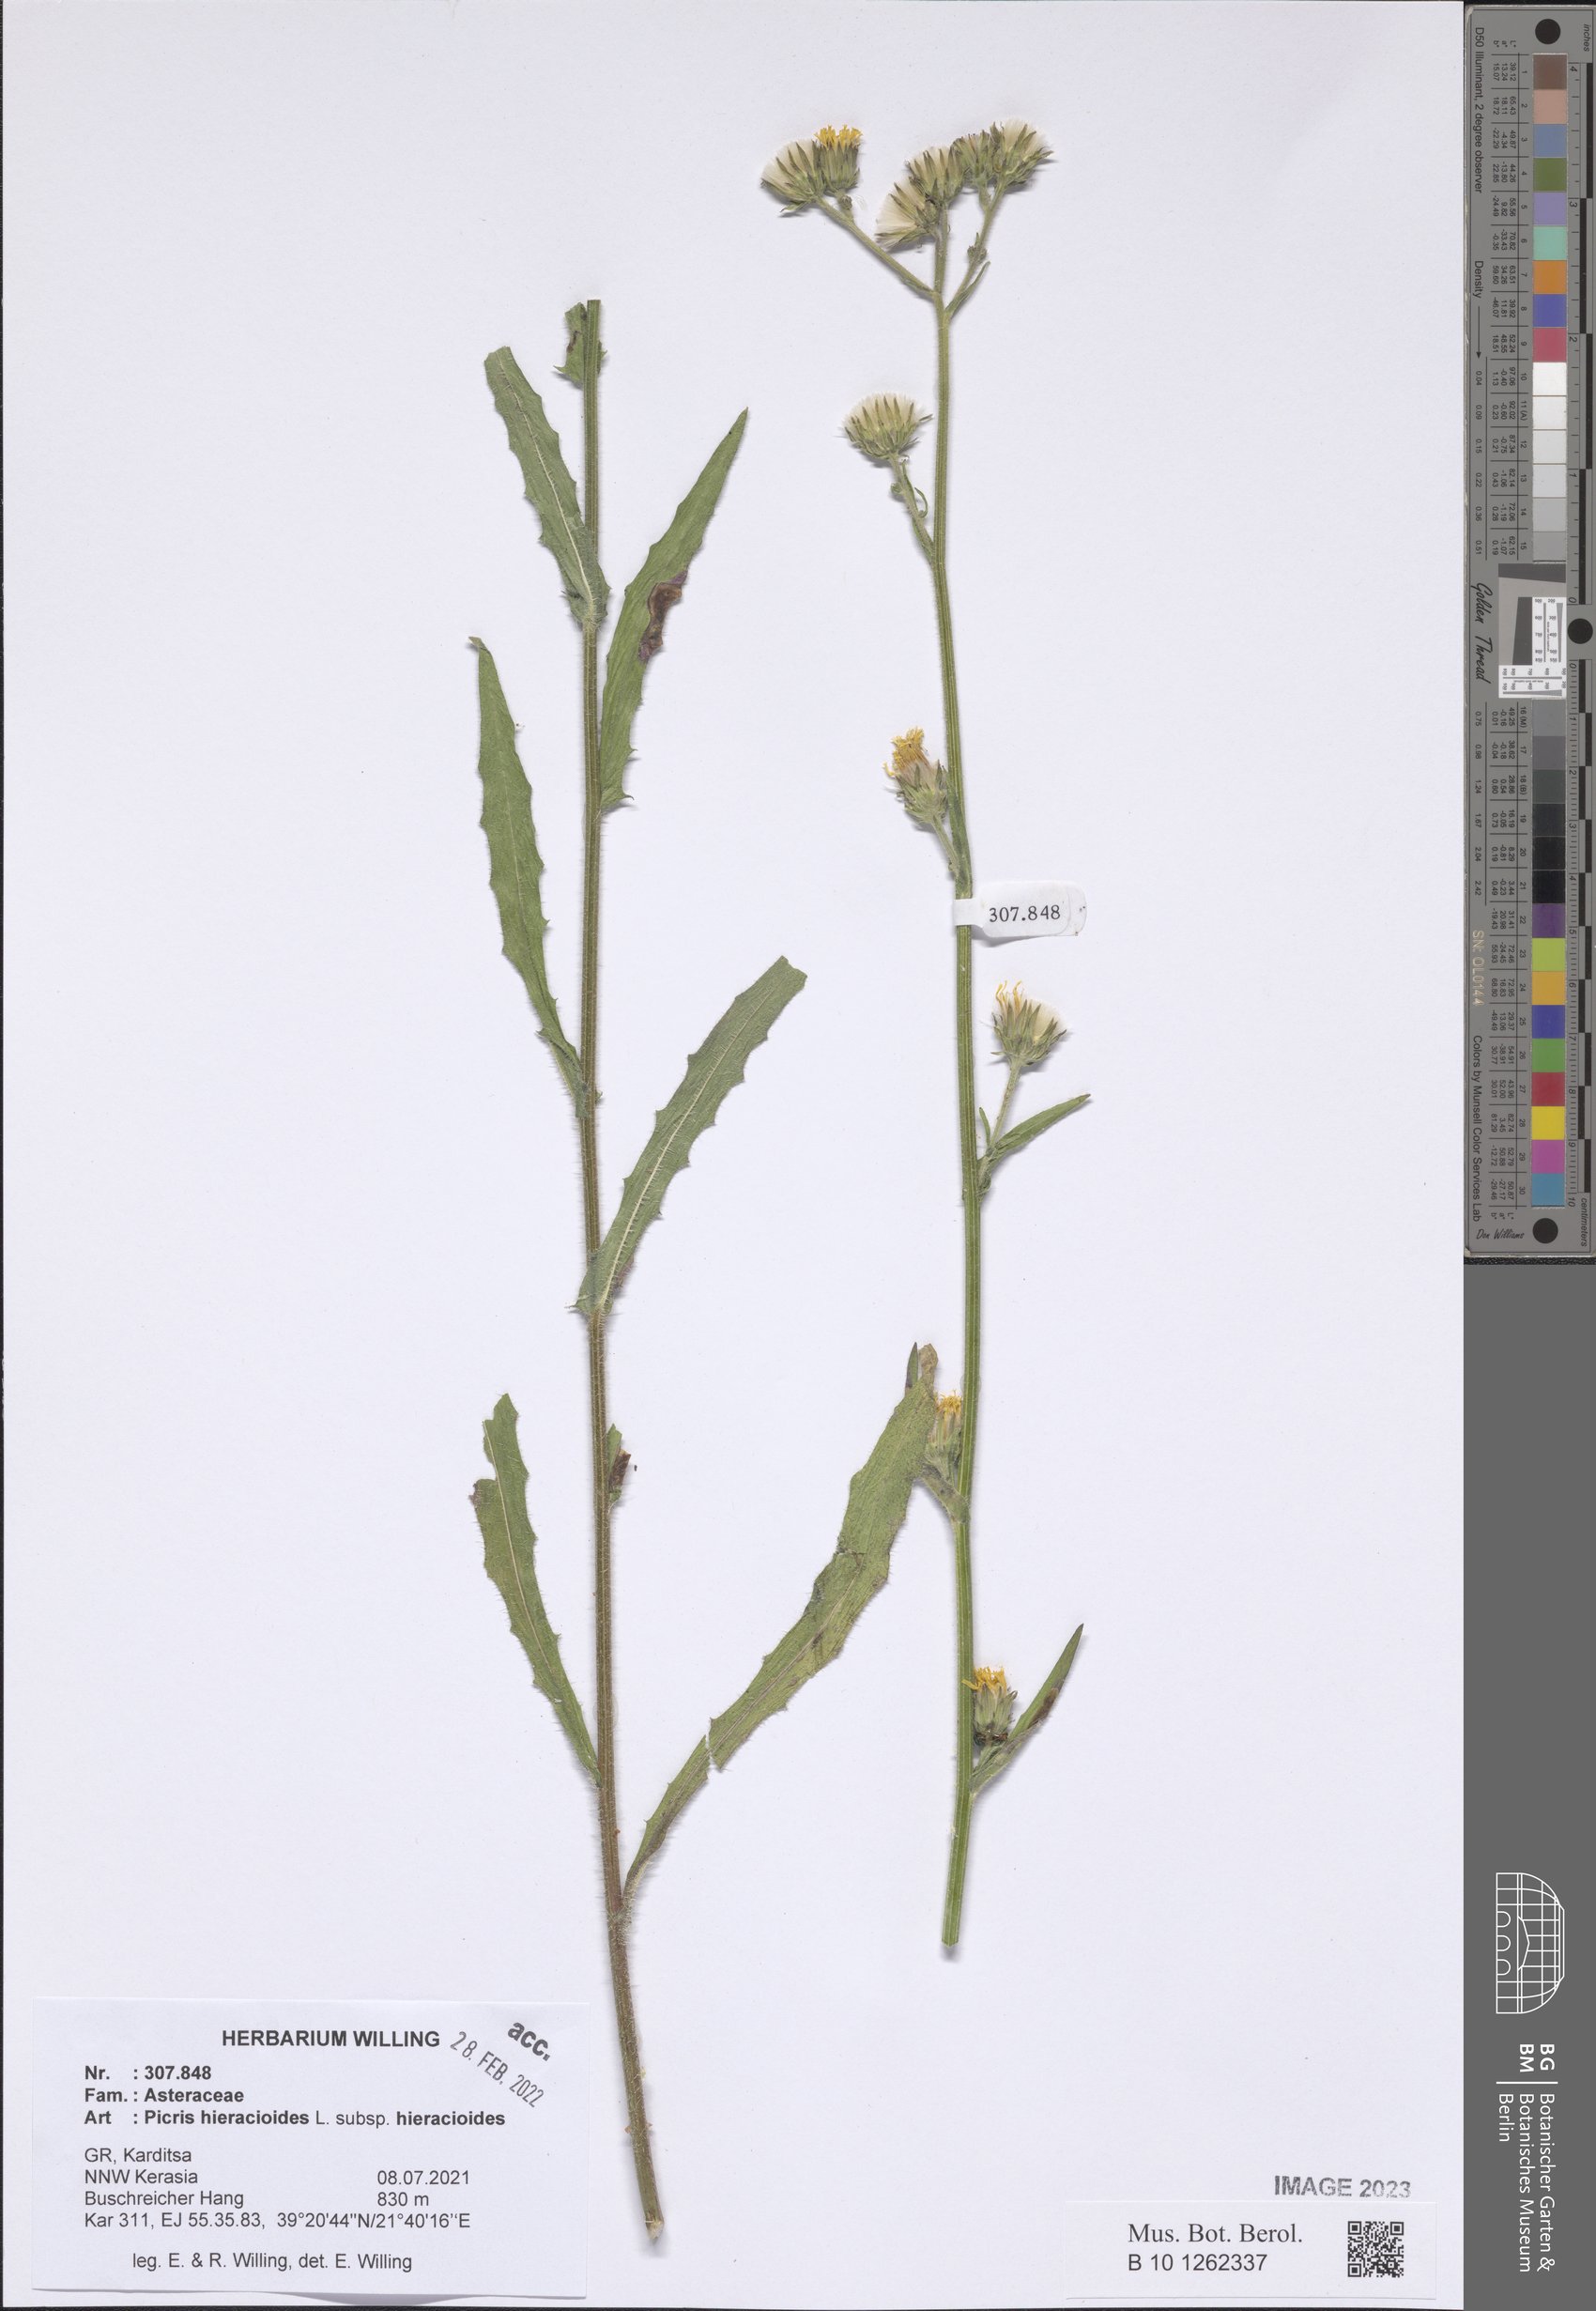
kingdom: Plantae
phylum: Tracheophyta
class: Magnoliopsida
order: Asterales
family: Asteraceae
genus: Picris
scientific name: Picris hieracioides
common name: Hawkweed oxtongue
